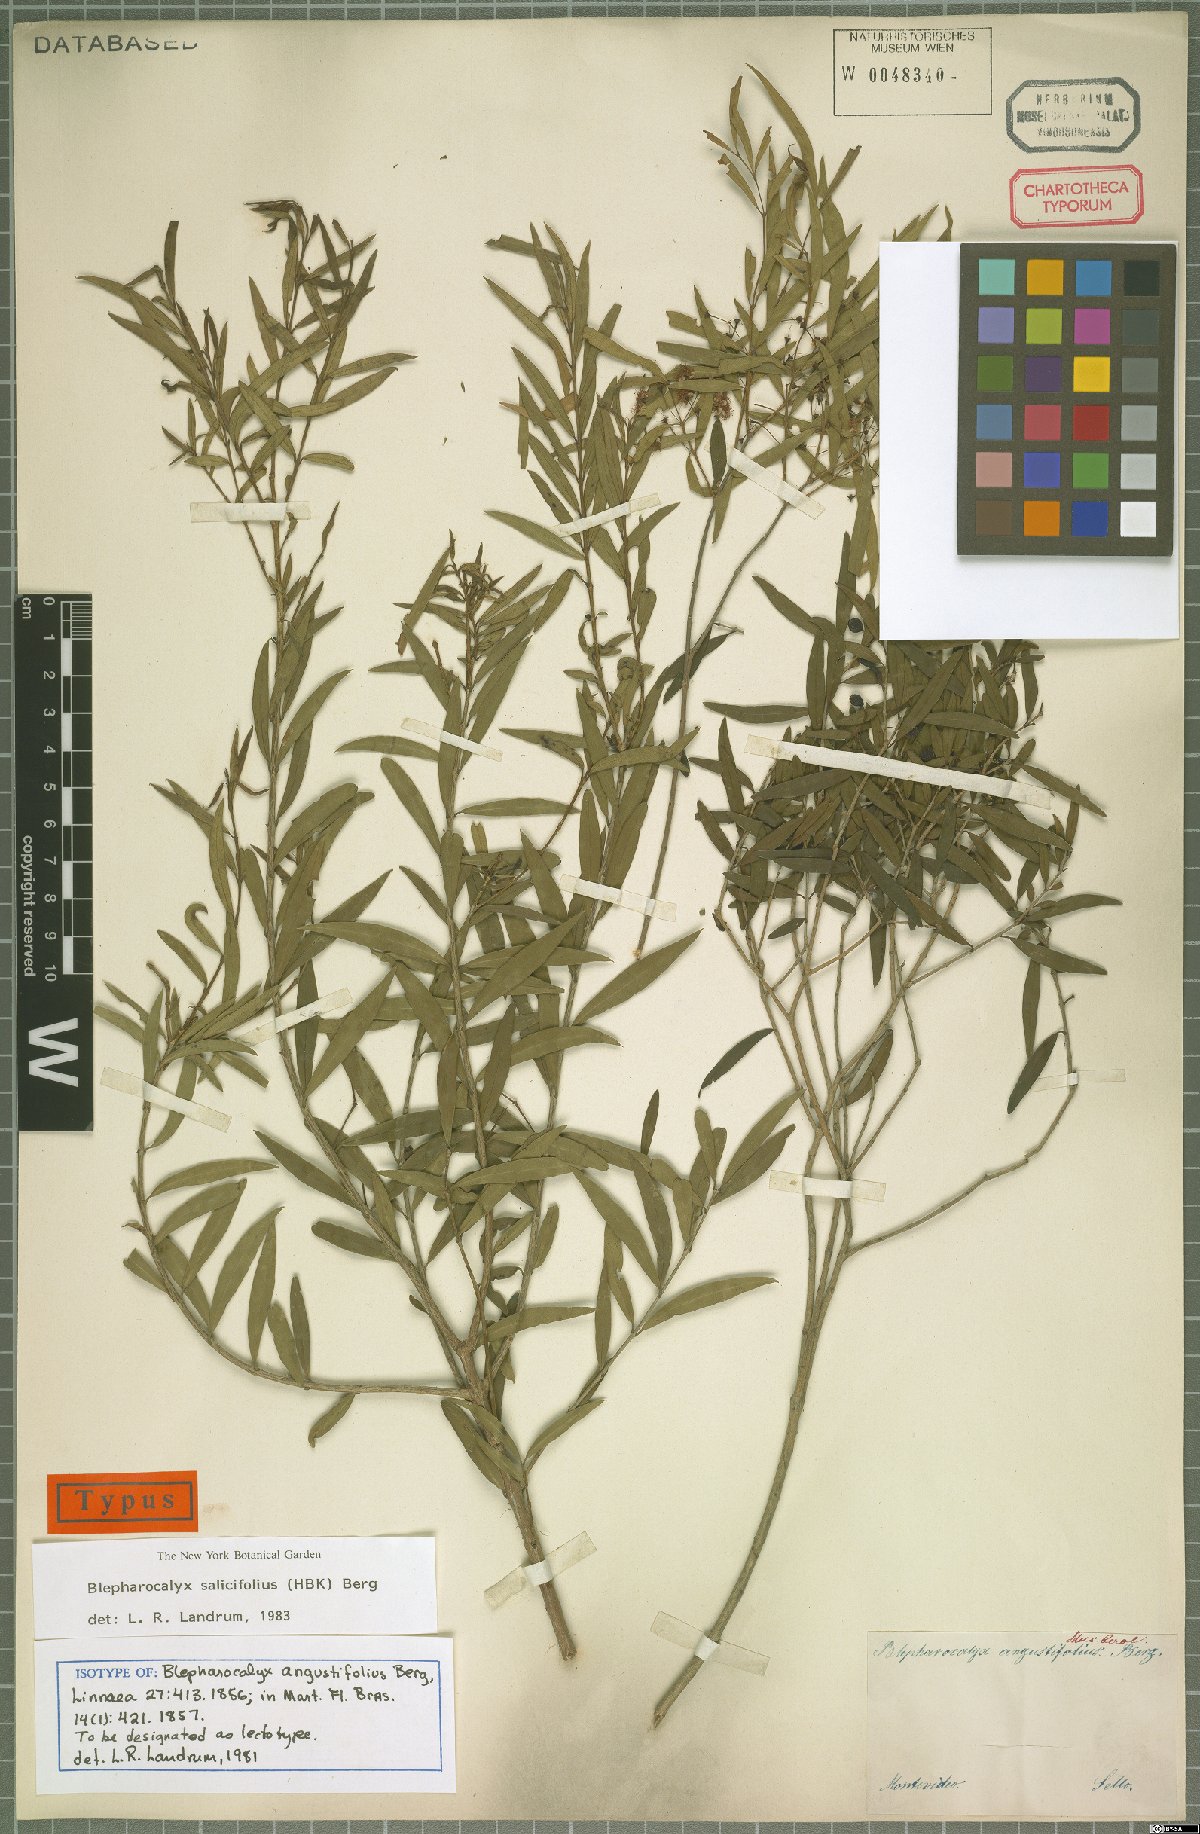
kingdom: Plantae
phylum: Tracheophyta
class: Magnoliopsida
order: Myrtales
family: Myrtaceae
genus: Blepharocalyx
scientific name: Blepharocalyx salicifolius
